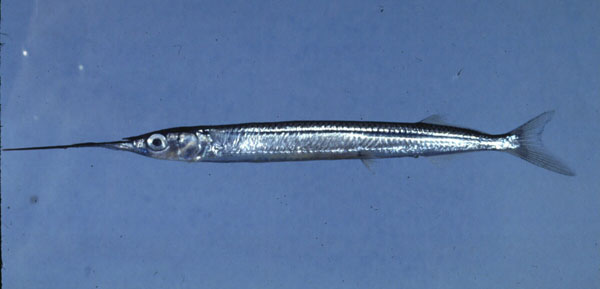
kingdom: Animalia
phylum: Chordata
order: Beloniformes
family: Hemiramphidae
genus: Hyporhamphus
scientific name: Hyporhamphus affinis
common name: Tropical halfbeak
